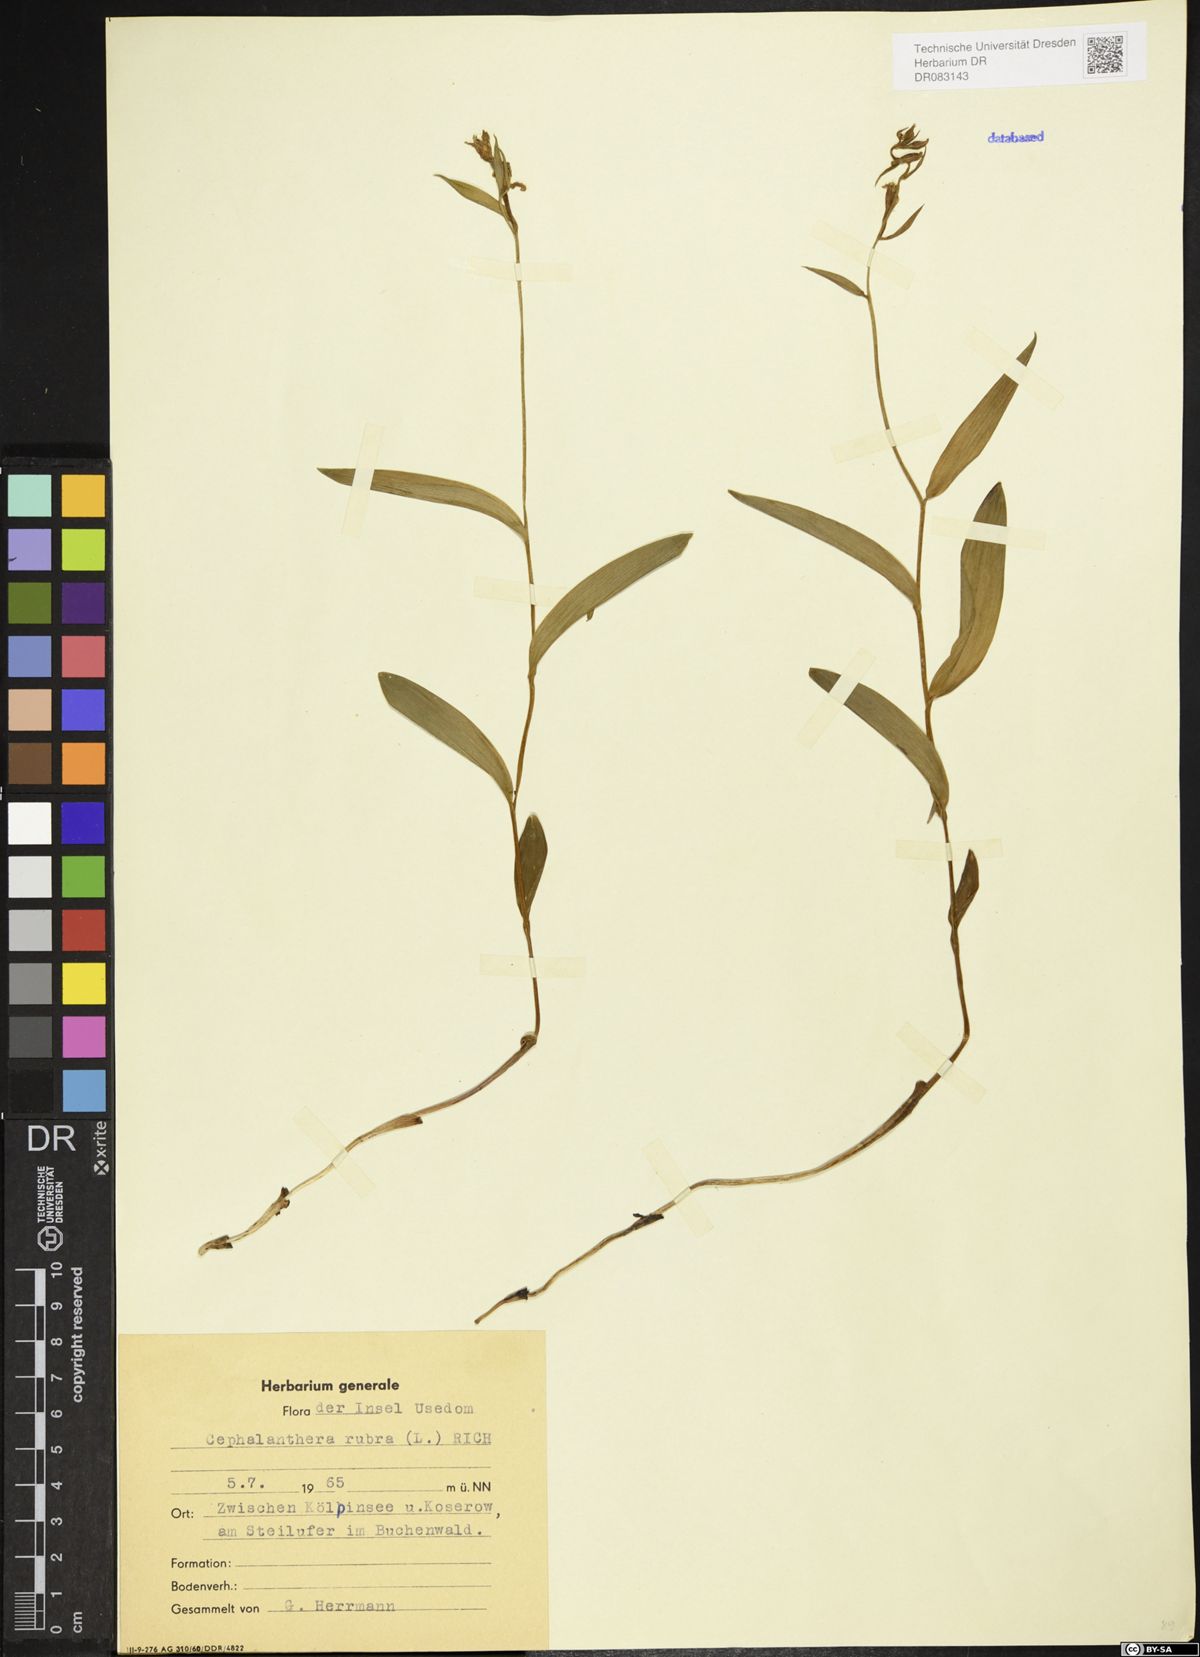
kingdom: Plantae
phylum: Tracheophyta
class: Liliopsida
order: Asparagales
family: Orchidaceae
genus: Cephalanthera
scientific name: Cephalanthera rubra
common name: Red helleborine
